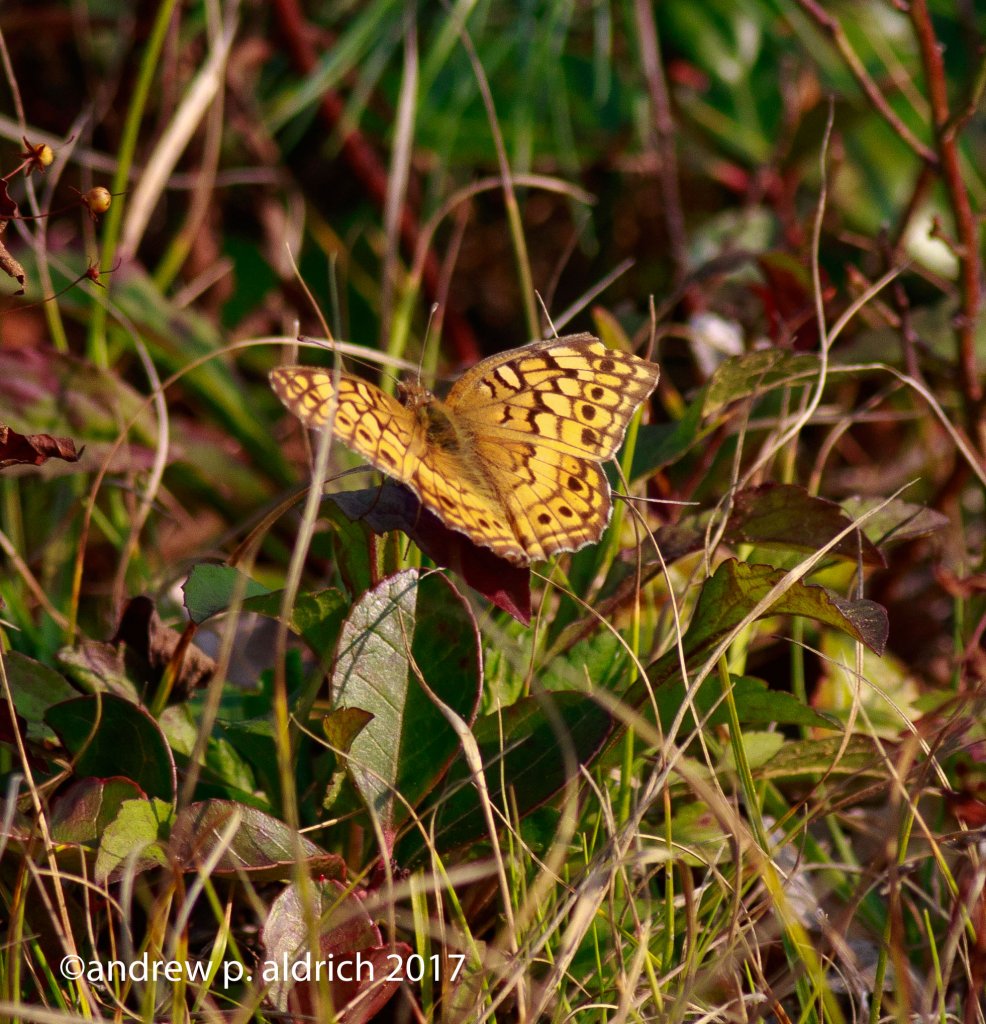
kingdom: Animalia
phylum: Arthropoda
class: Insecta
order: Lepidoptera
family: Nymphalidae
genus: Euptoieta
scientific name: Euptoieta claudia
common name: Variegated Fritillary
